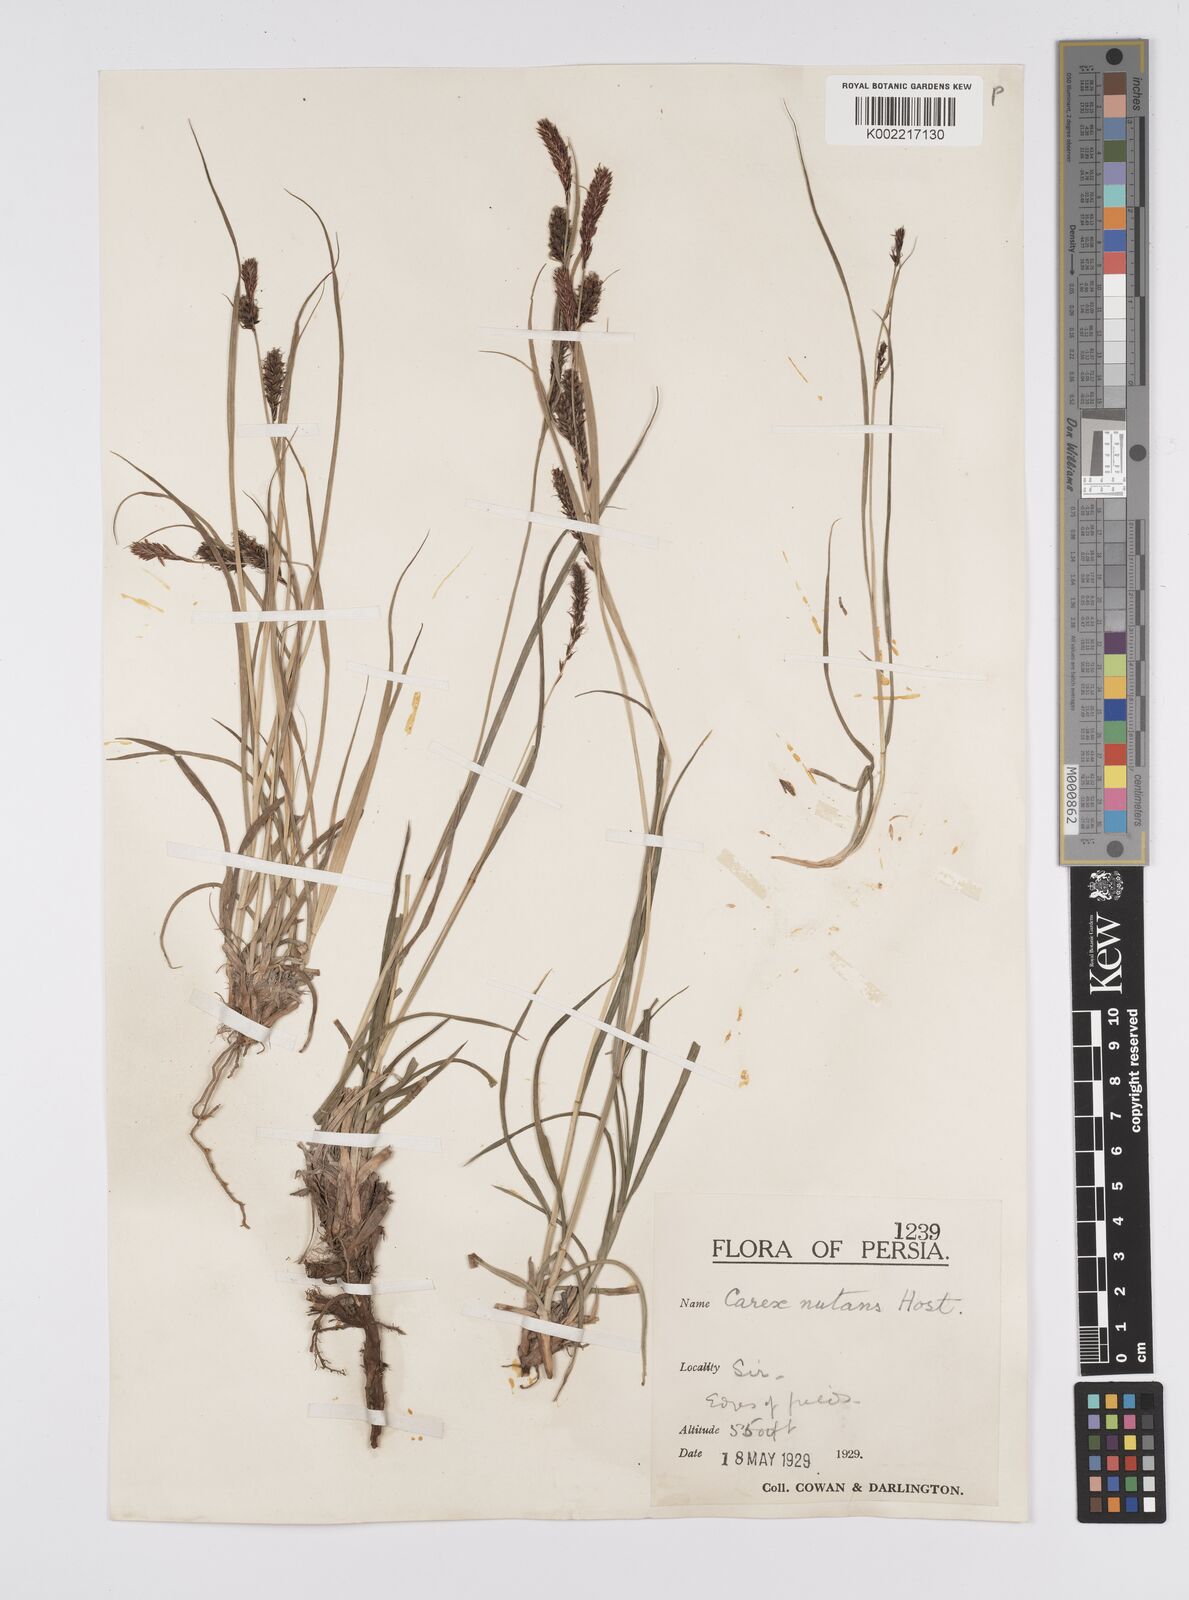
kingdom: Plantae
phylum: Tracheophyta
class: Liliopsida
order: Poales
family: Cyperaceae
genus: Carex
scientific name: Carex melanostachya
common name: Black-spiked sedge
